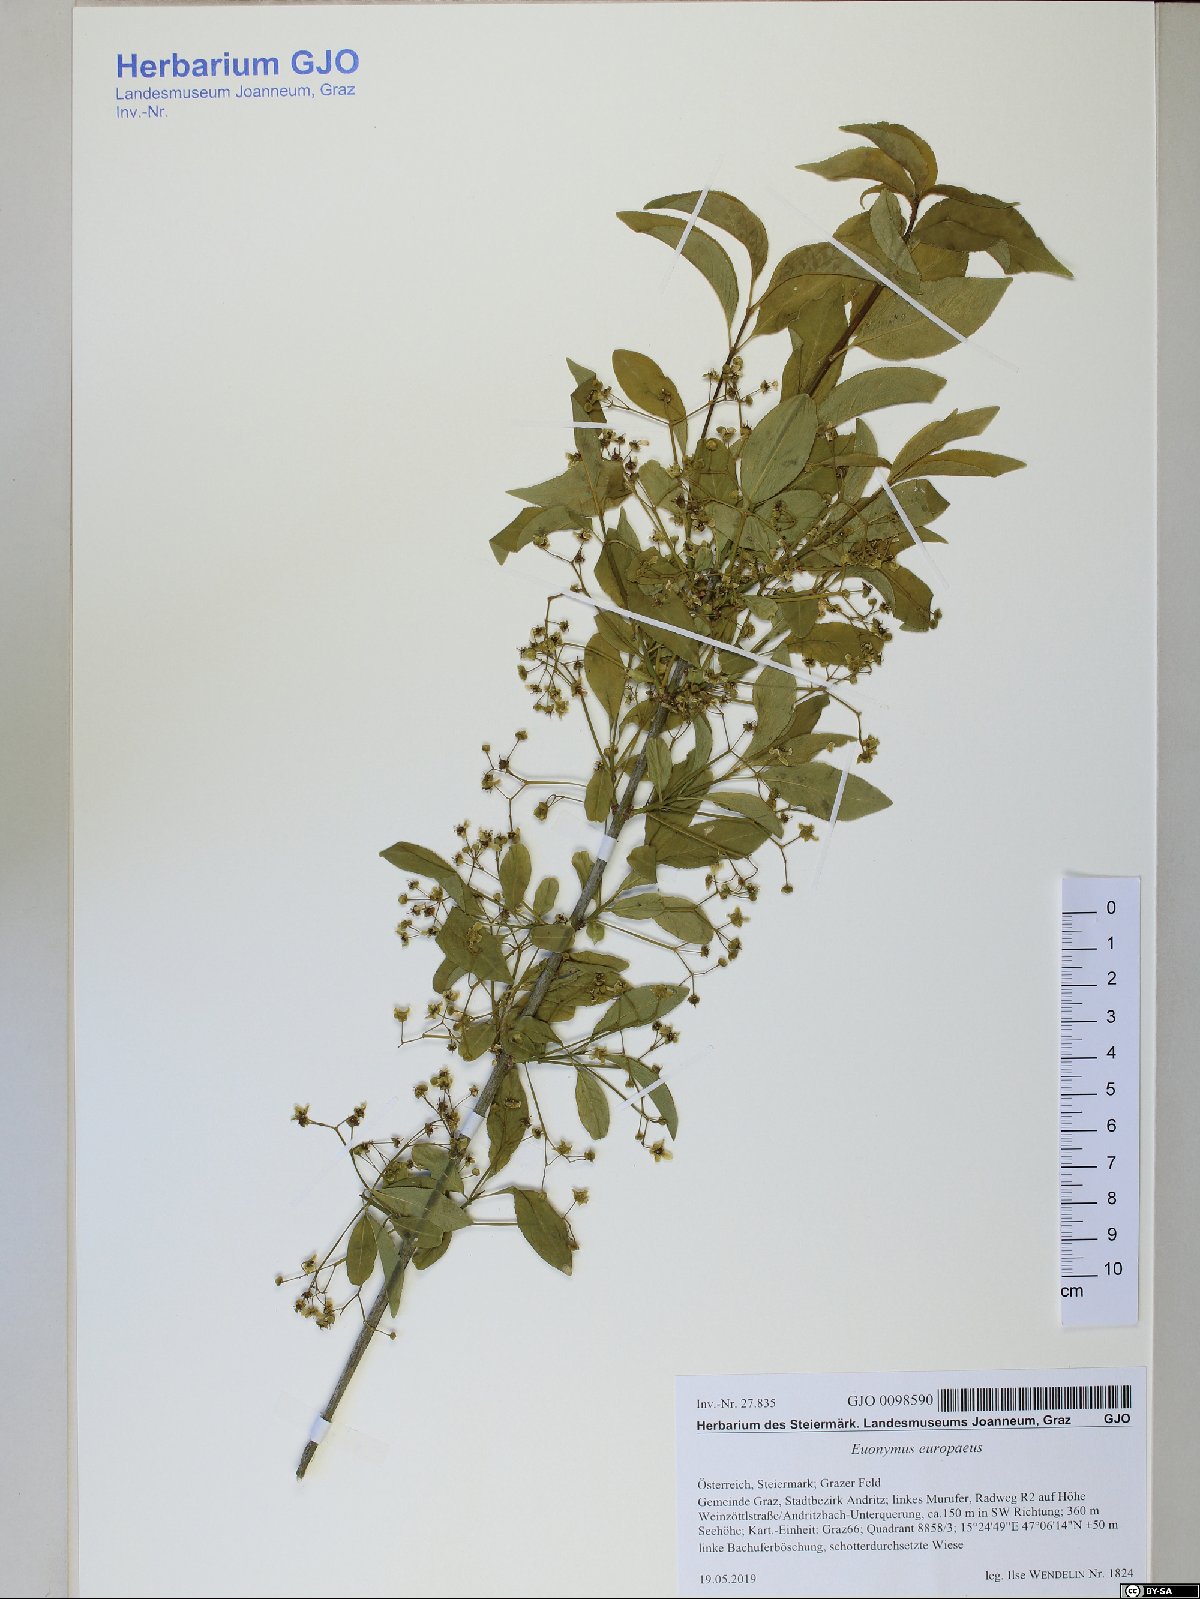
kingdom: Plantae
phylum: Tracheophyta
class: Magnoliopsida
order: Celastrales
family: Celastraceae
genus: Euonymus
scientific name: Euonymus europaeus
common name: Spindle
